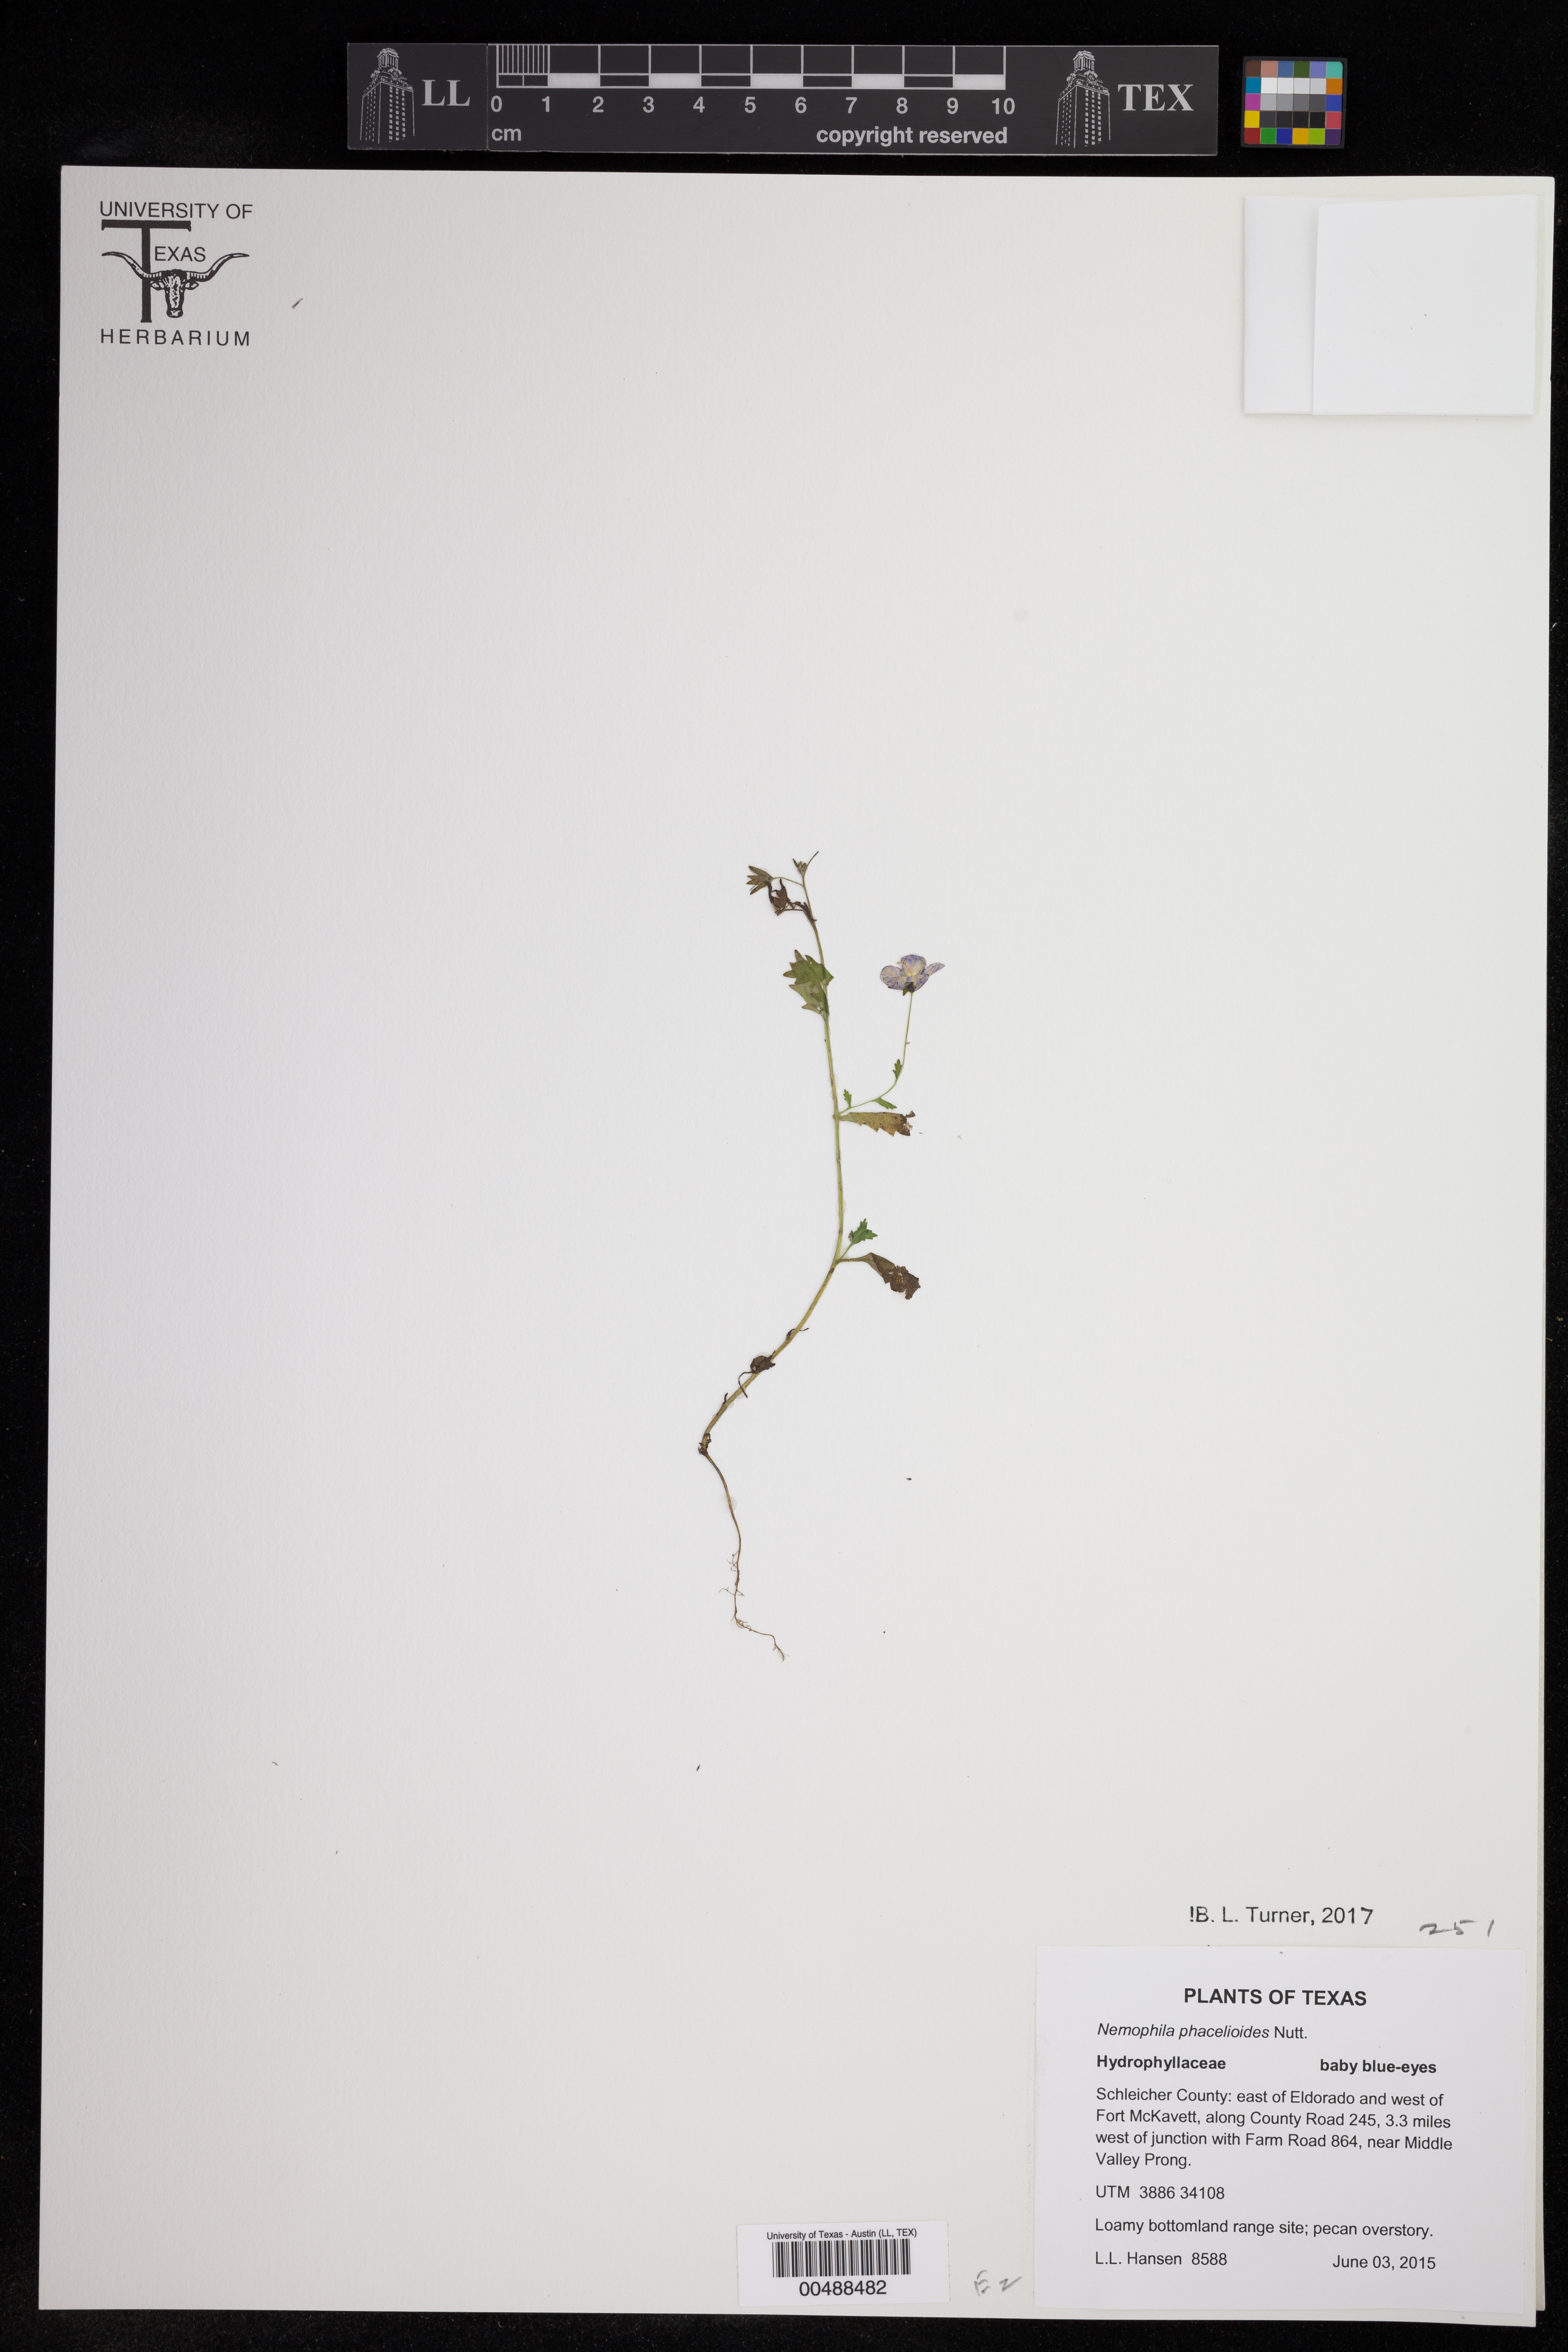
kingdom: Plantae
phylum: Tracheophyta
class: Magnoliopsida
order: Boraginales
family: Hydrophyllaceae
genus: Nemophila
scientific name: Nemophila phacelioides
